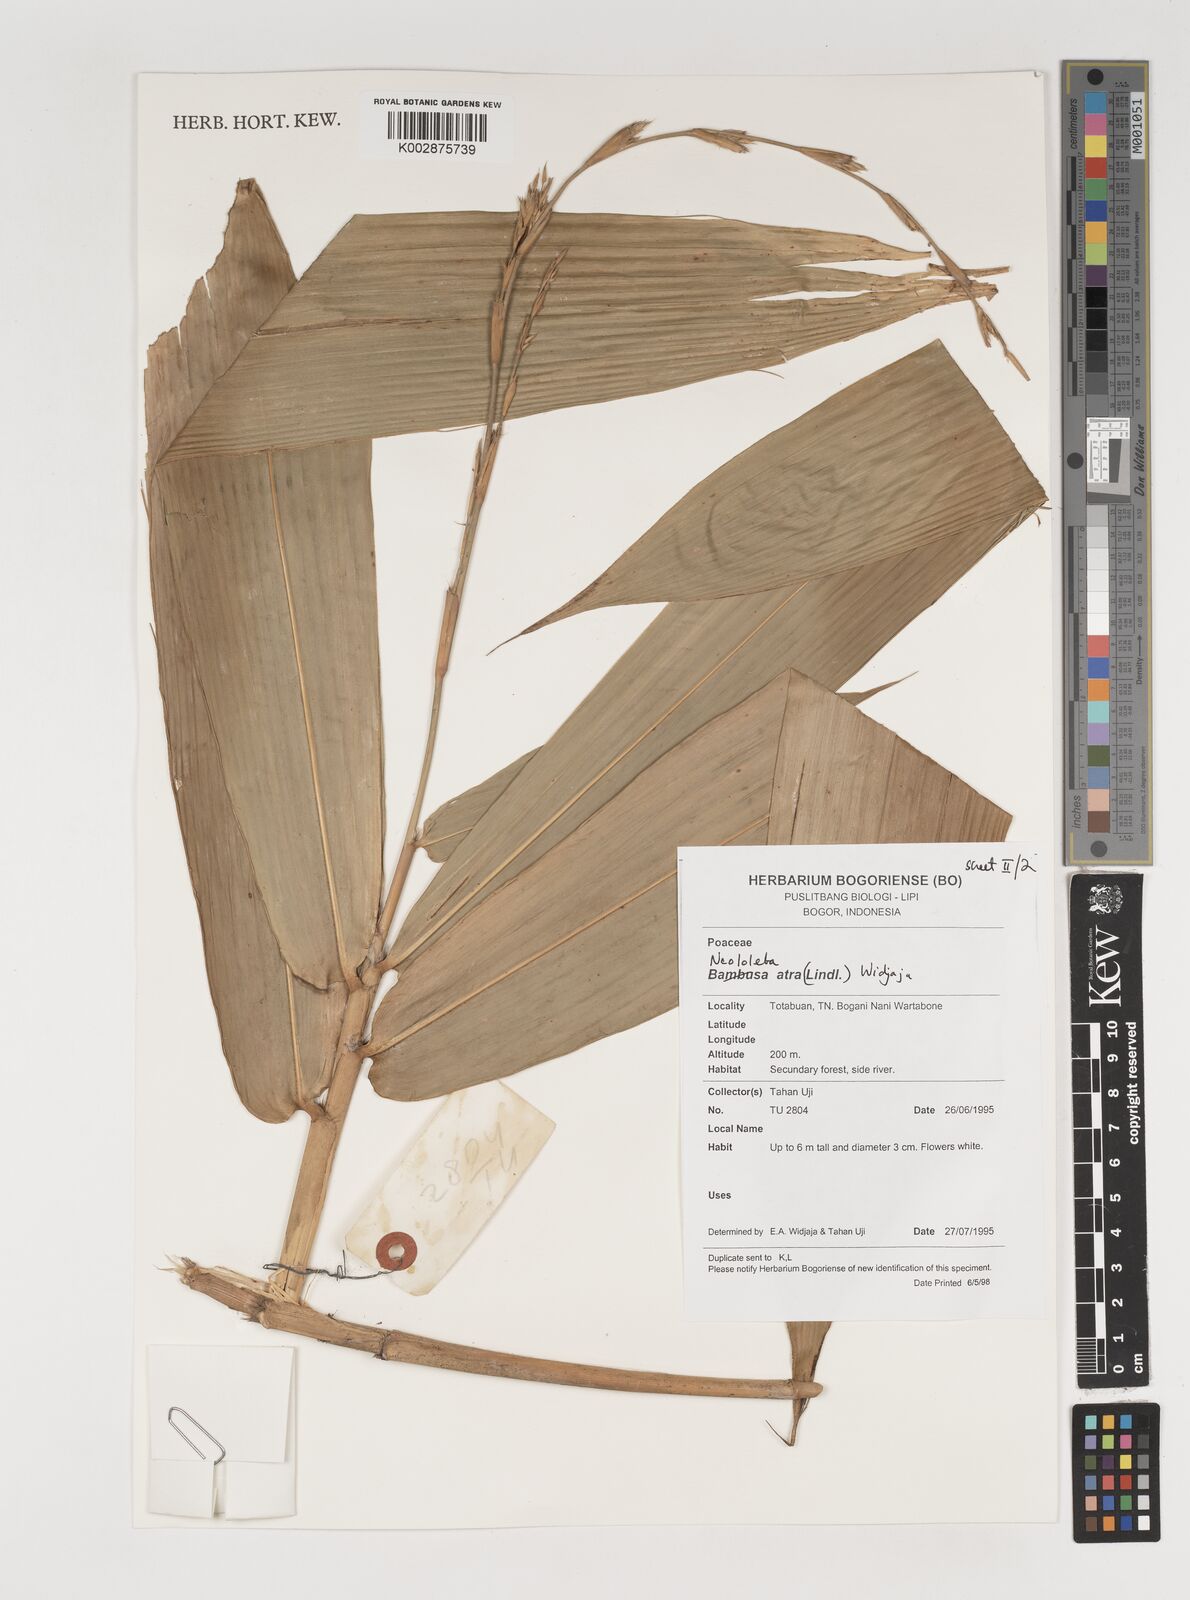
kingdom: Plantae
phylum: Tracheophyta
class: Liliopsida
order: Poales
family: Poaceae
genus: Neololeba
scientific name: Neololeba atra
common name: Cape bamboo
